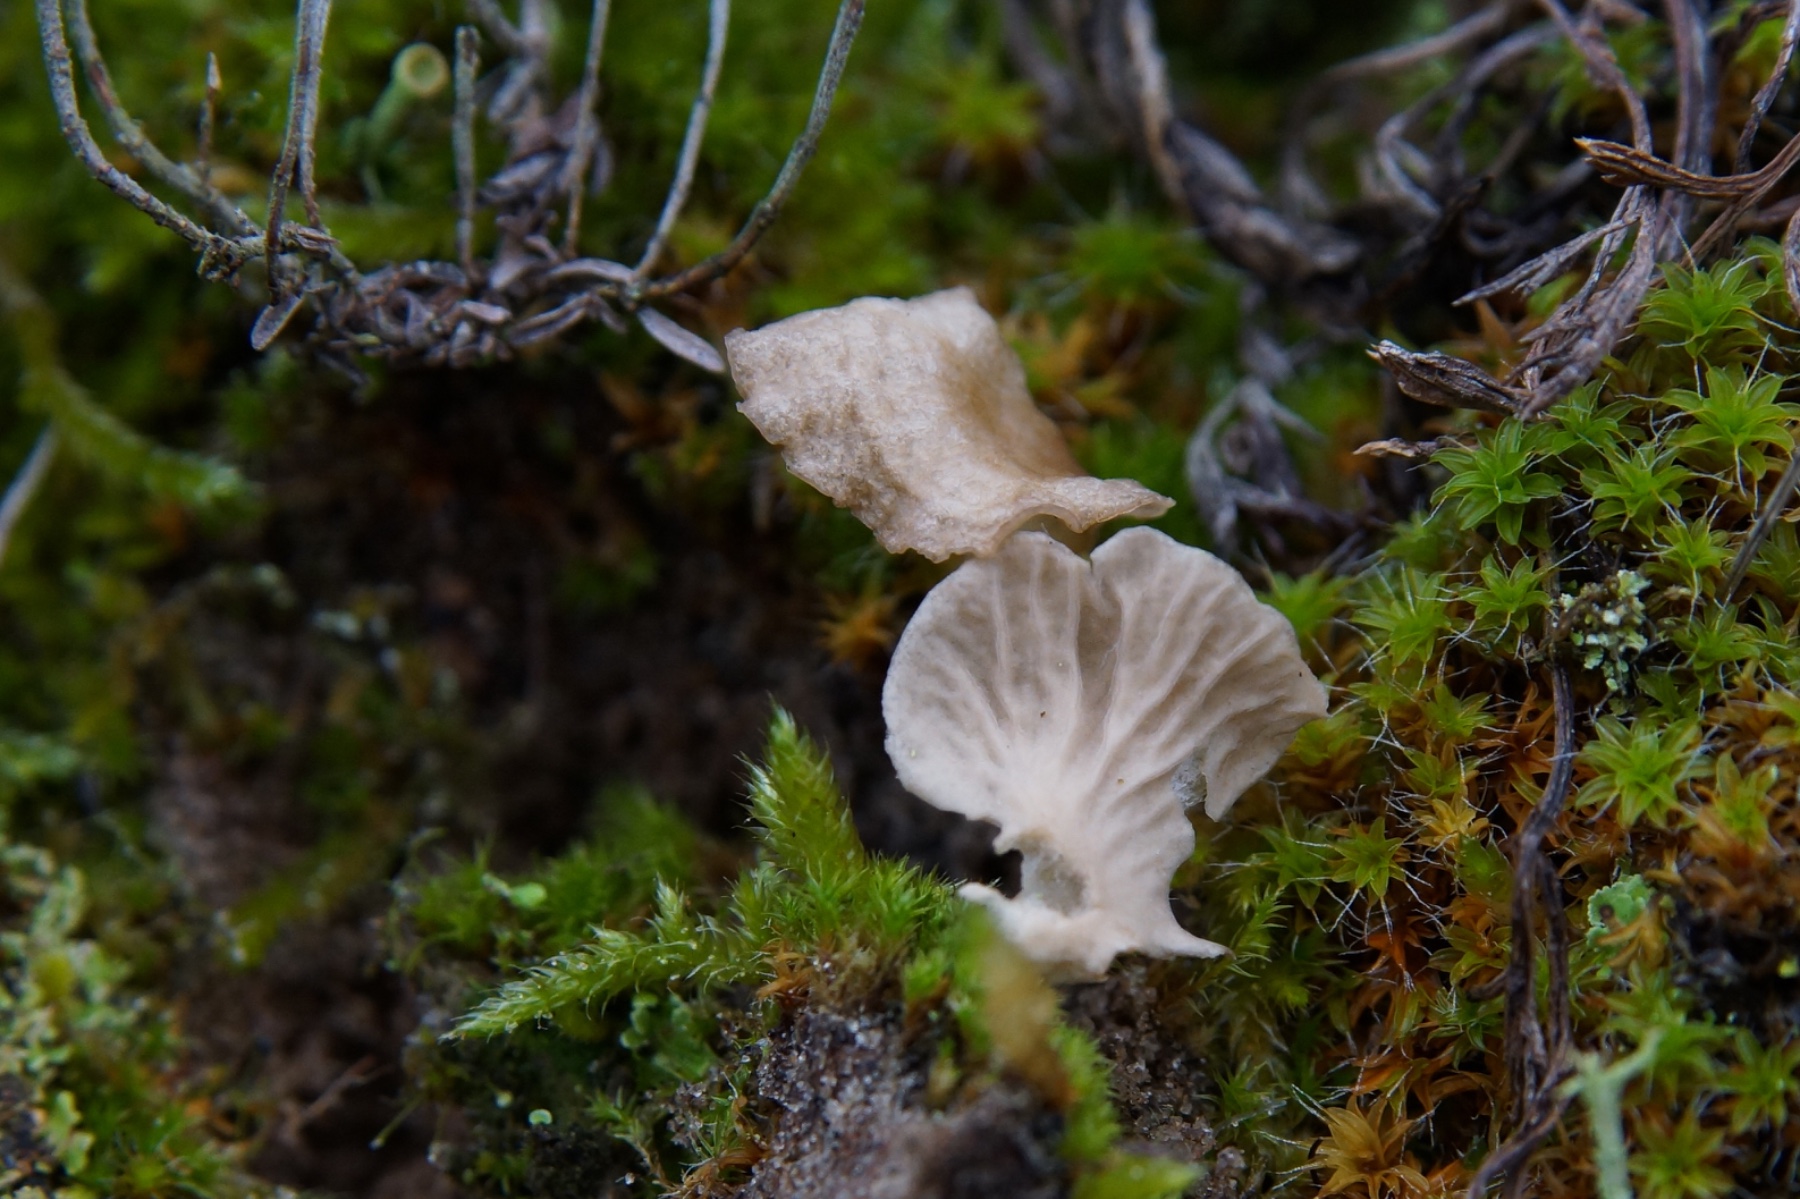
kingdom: Fungi
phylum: Basidiomycota
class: Agaricomycetes
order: Agaricales
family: Hygrophoraceae
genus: Arrhenia
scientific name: Arrhenia spathulata
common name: skæv fontænehat
